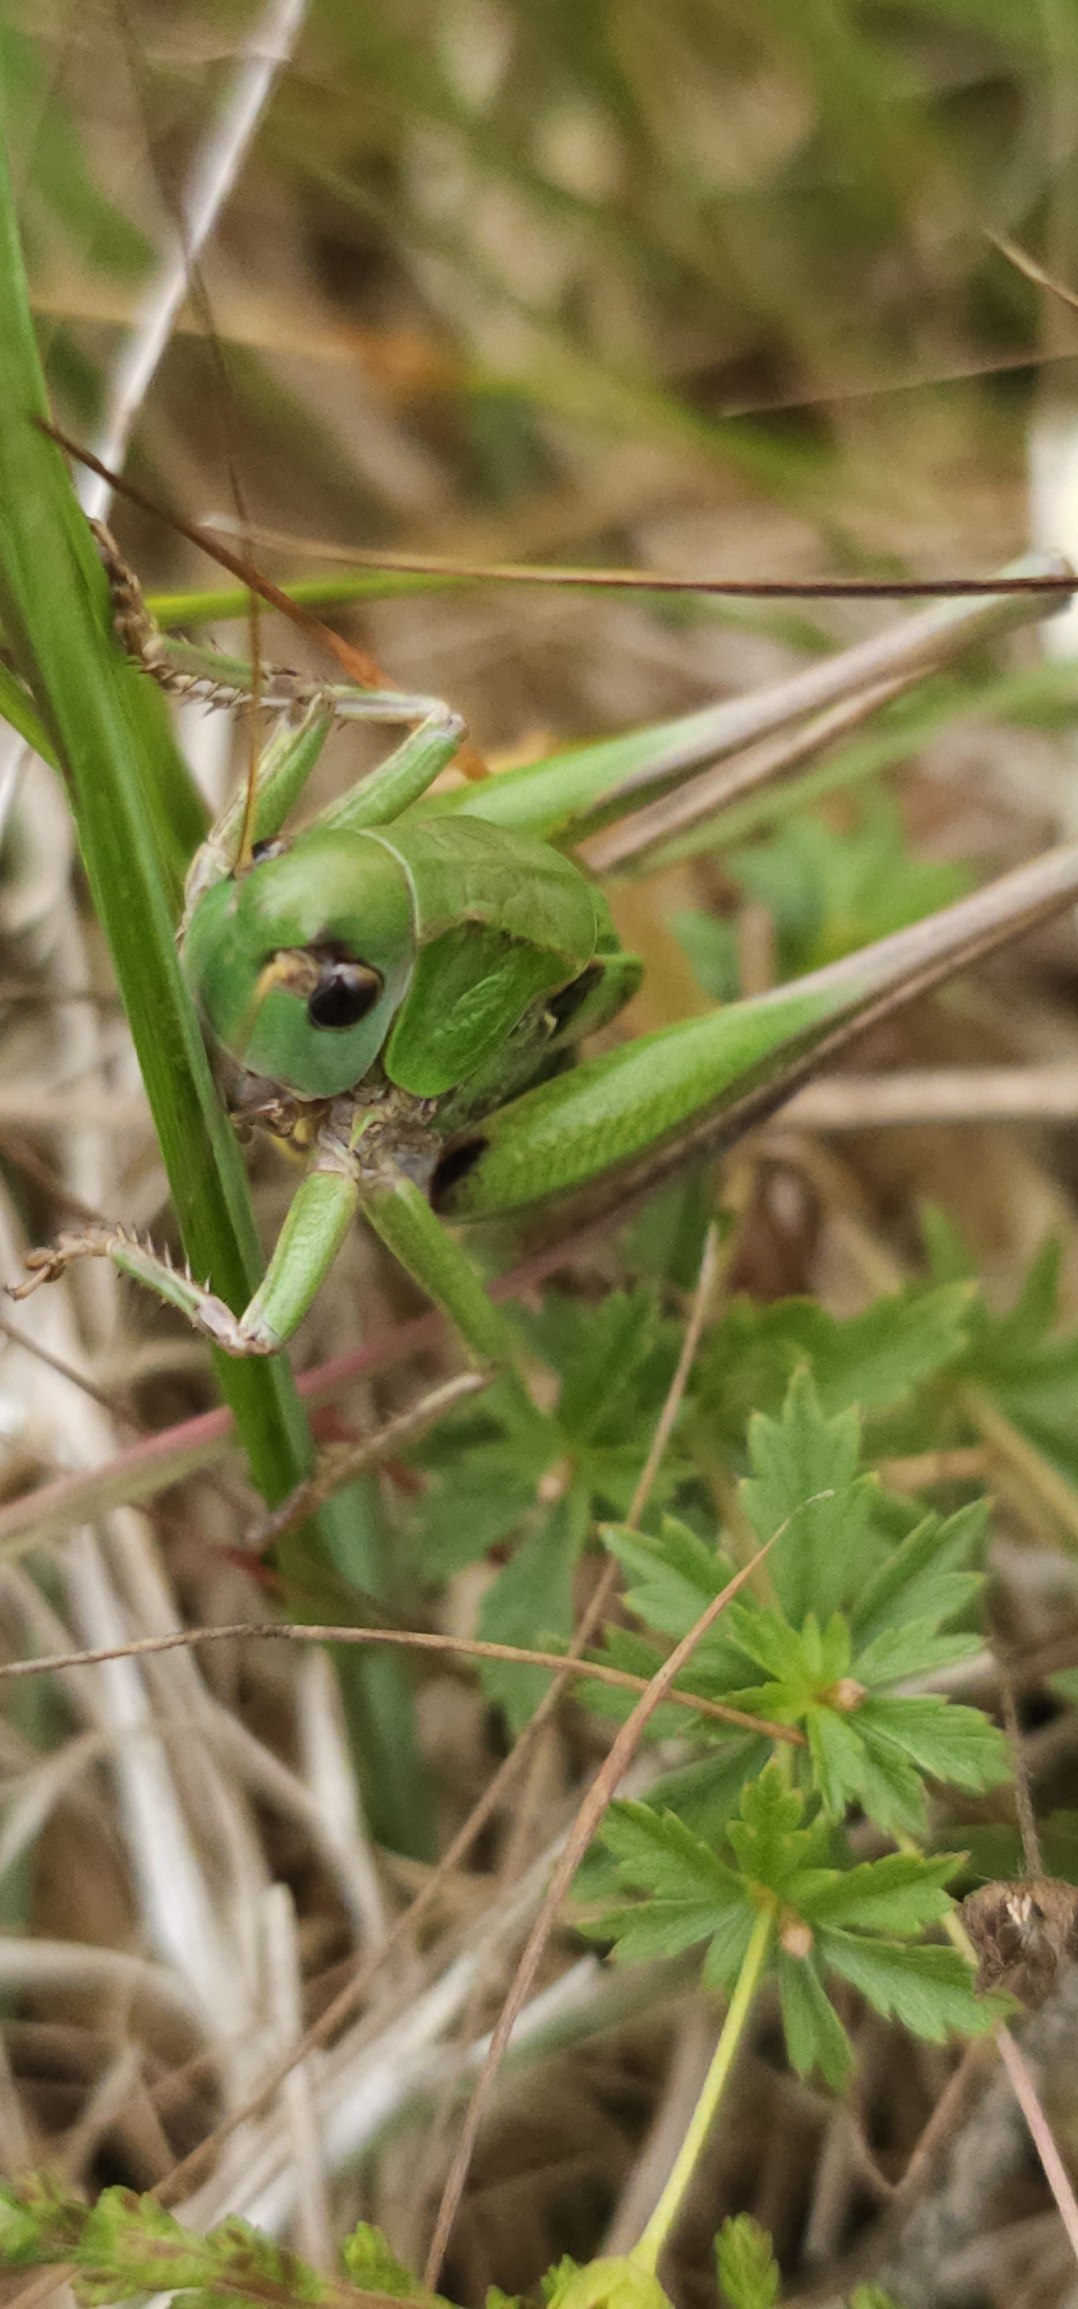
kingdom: Animalia
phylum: Arthropoda
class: Insecta
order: Orthoptera
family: Tettigoniidae
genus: Decticus
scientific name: Decticus verrucivorus
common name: Vortebider
